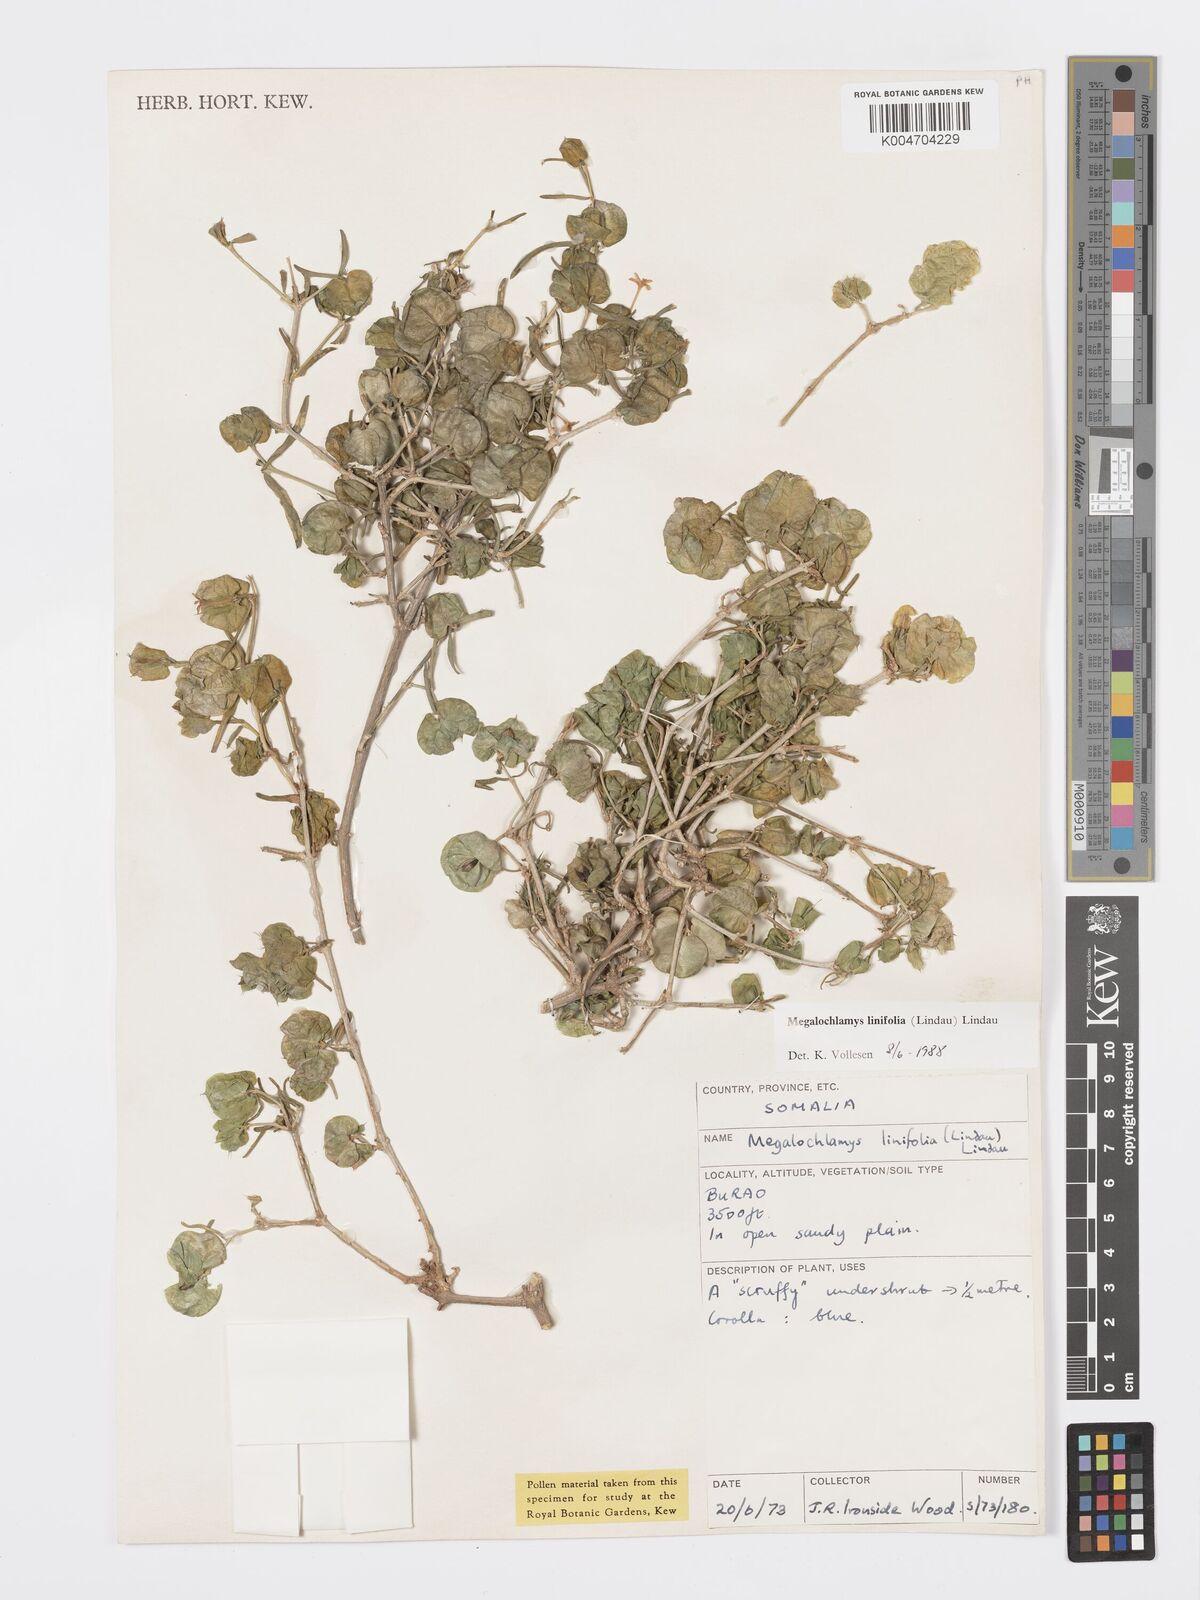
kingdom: Plantae
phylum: Tracheophyta
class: Magnoliopsida
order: Lamiales
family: Acanthaceae
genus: Megalochlamys
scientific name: Megalochlamys linifolia
